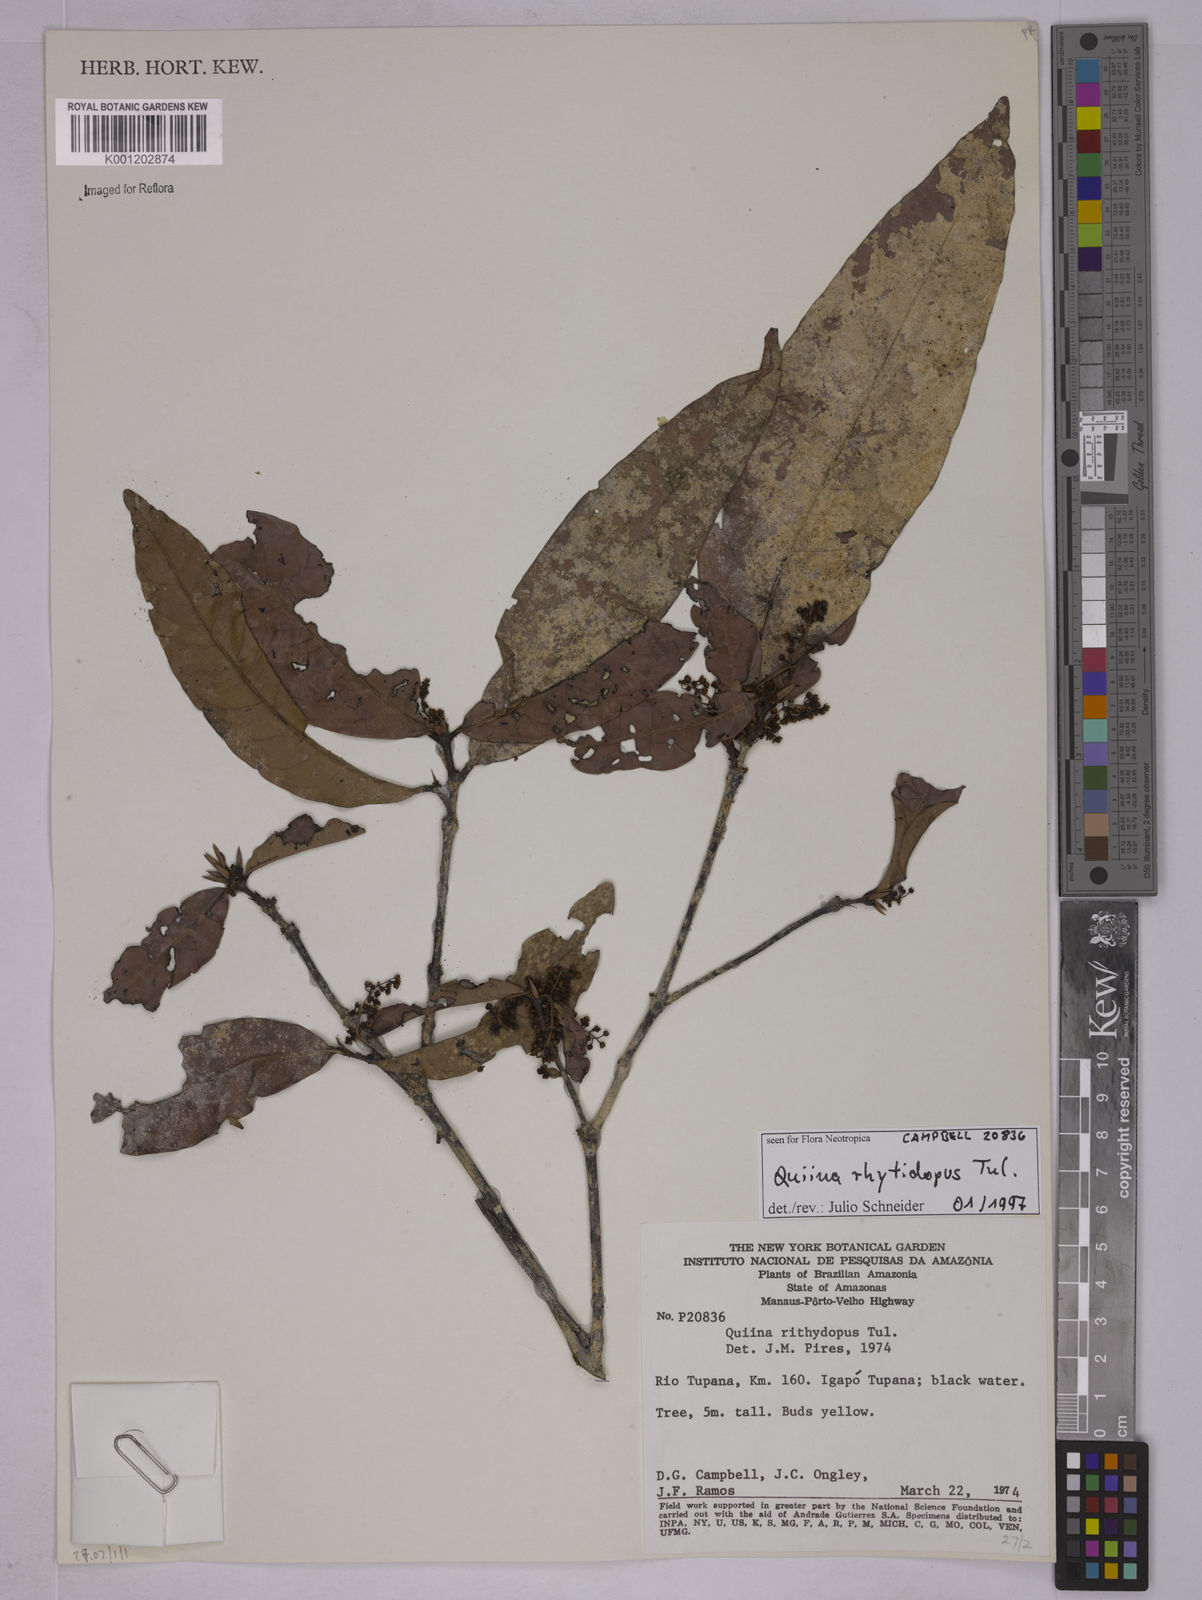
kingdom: Plantae
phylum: Tracheophyta
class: Magnoliopsida
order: Malpighiales
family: Quiinaceae
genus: Quiina
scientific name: Quiina rhytidopus
